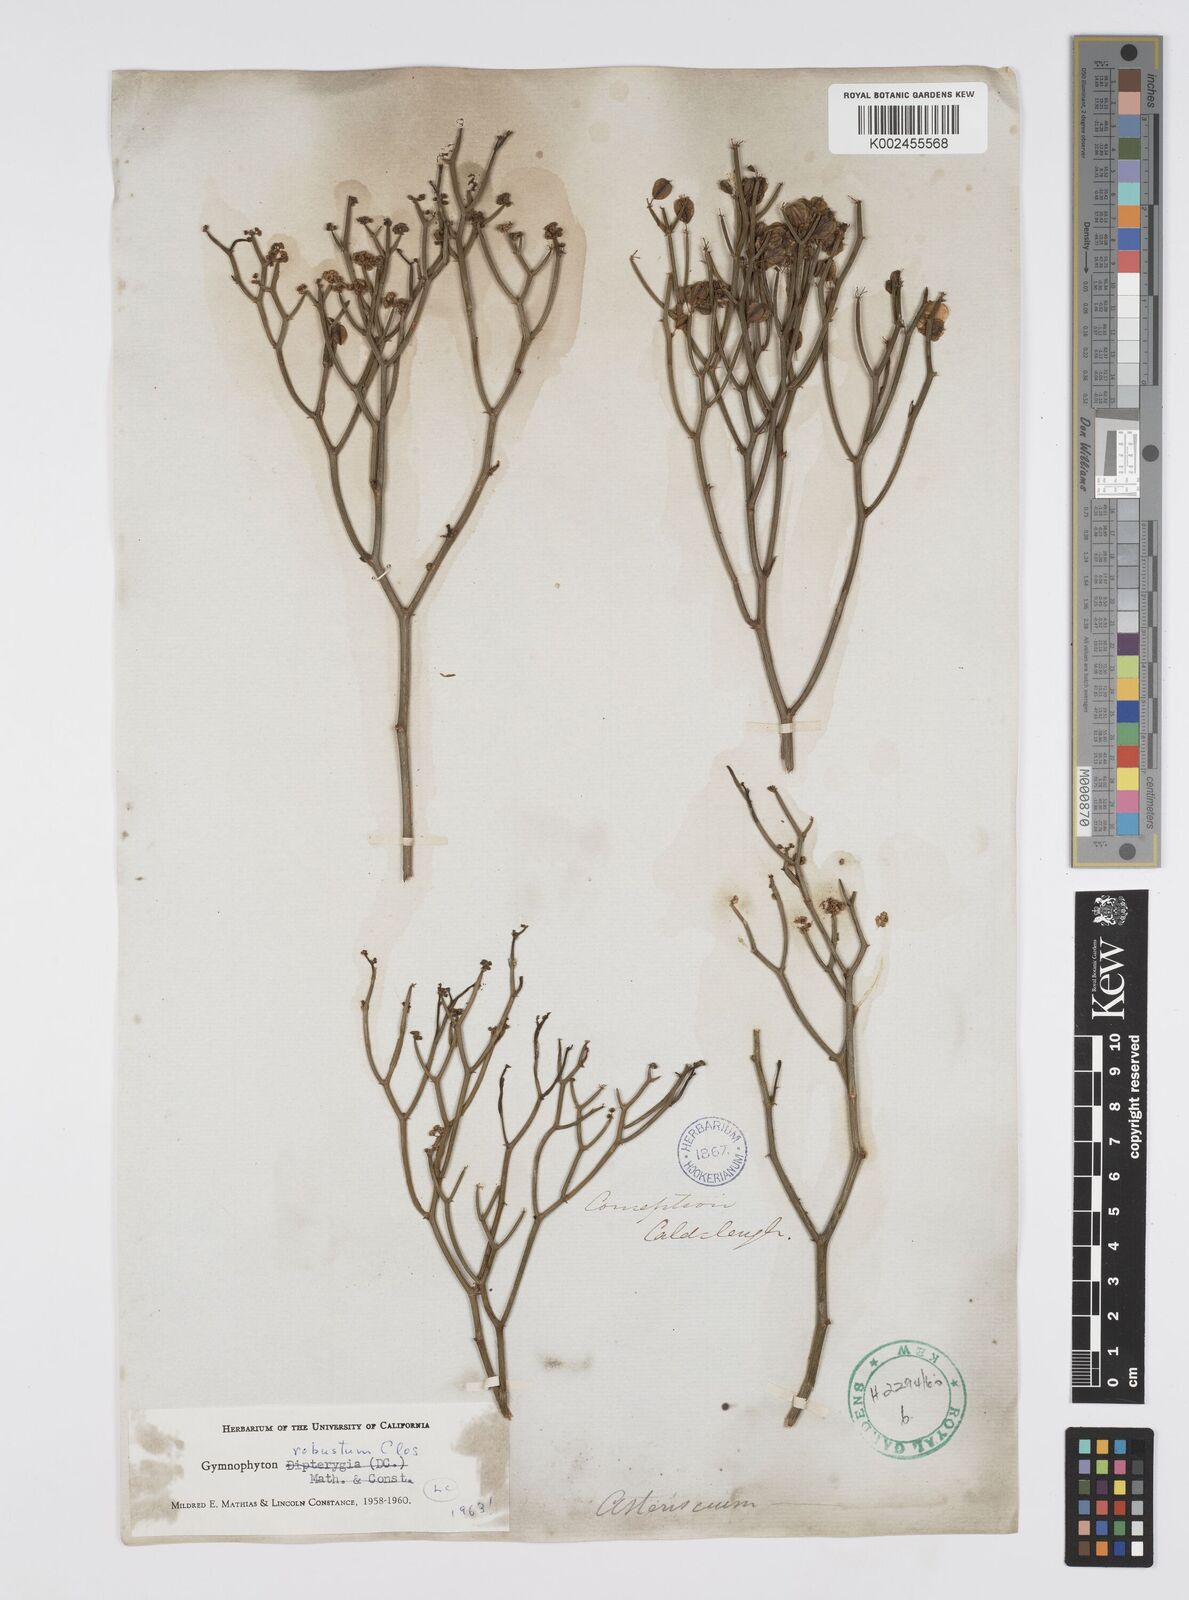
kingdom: Plantae
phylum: Tracheophyta
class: Magnoliopsida
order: Apiales
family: Apiaceae
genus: Gymnophyton
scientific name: Gymnophyton robustum
